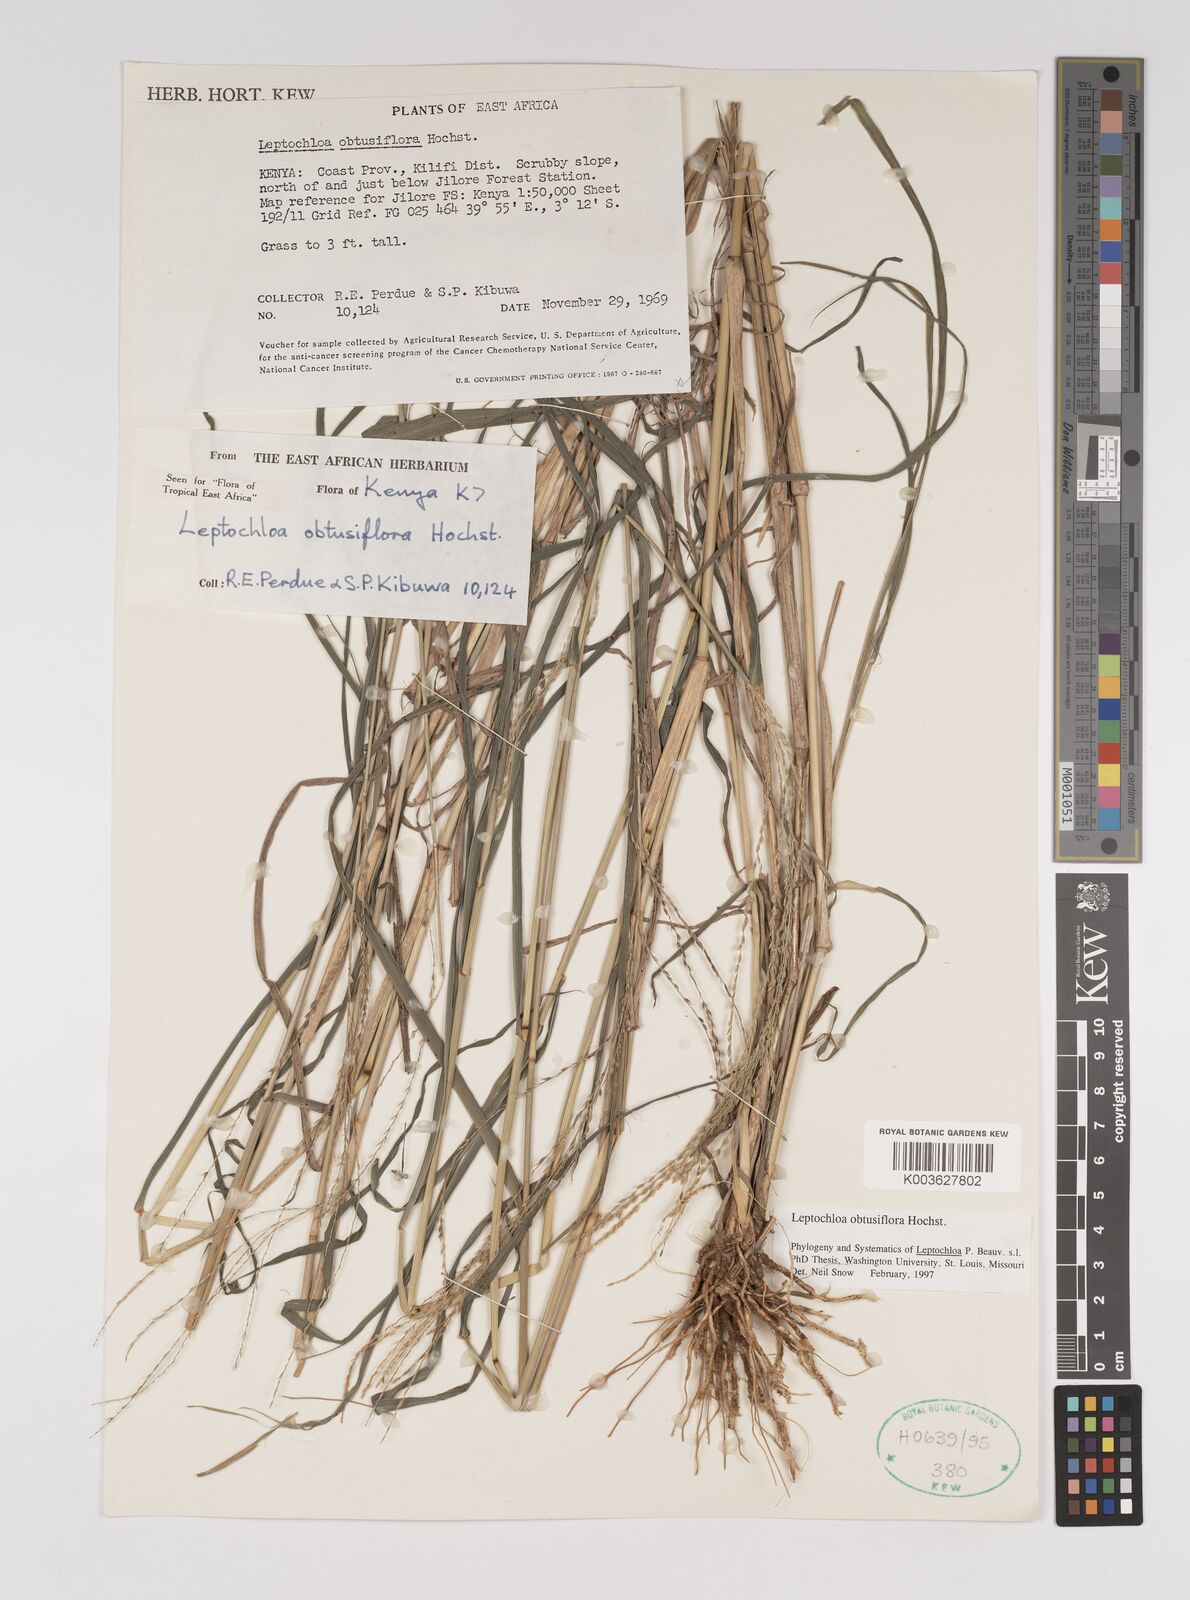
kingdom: Plantae
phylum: Tracheophyta
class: Liliopsida
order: Poales
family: Poaceae
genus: Disakisperma
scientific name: Disakisperma obtusiflorum
